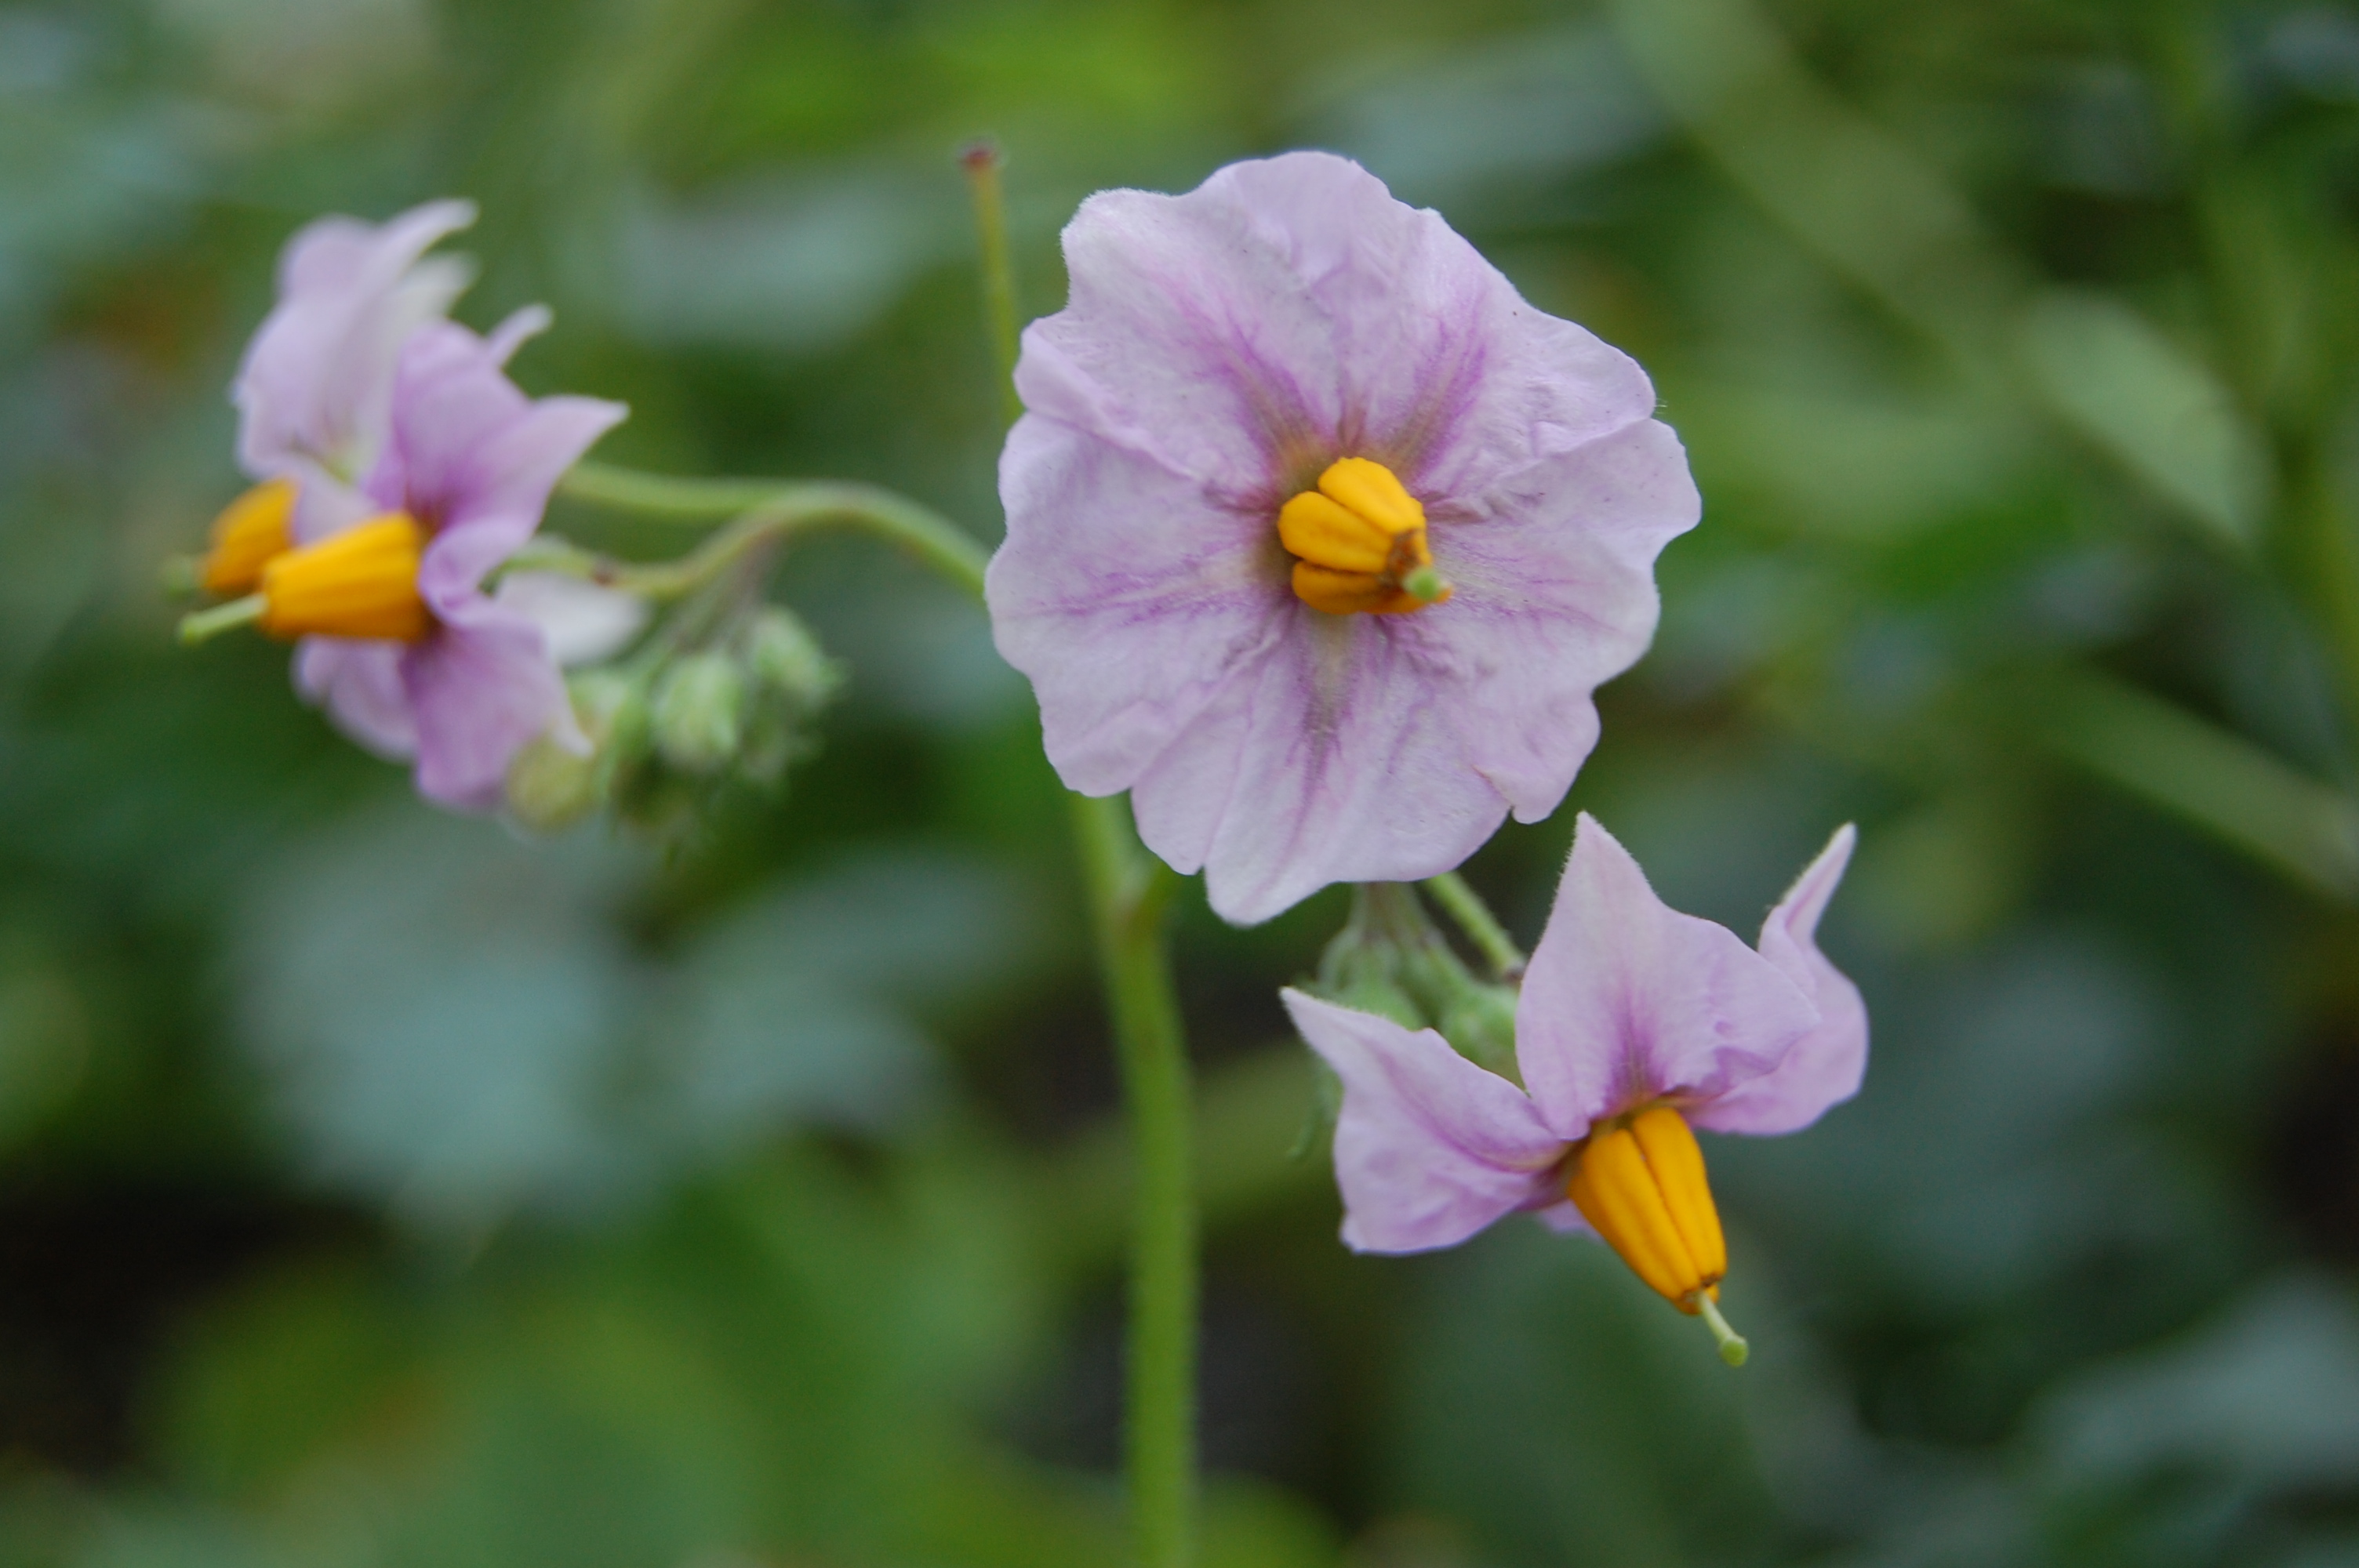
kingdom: Plantae
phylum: Tracheophyta
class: Magnoliopsida
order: Solanales
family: Solanaceae
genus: Solanum
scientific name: Solanum tuberosum
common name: Potato
